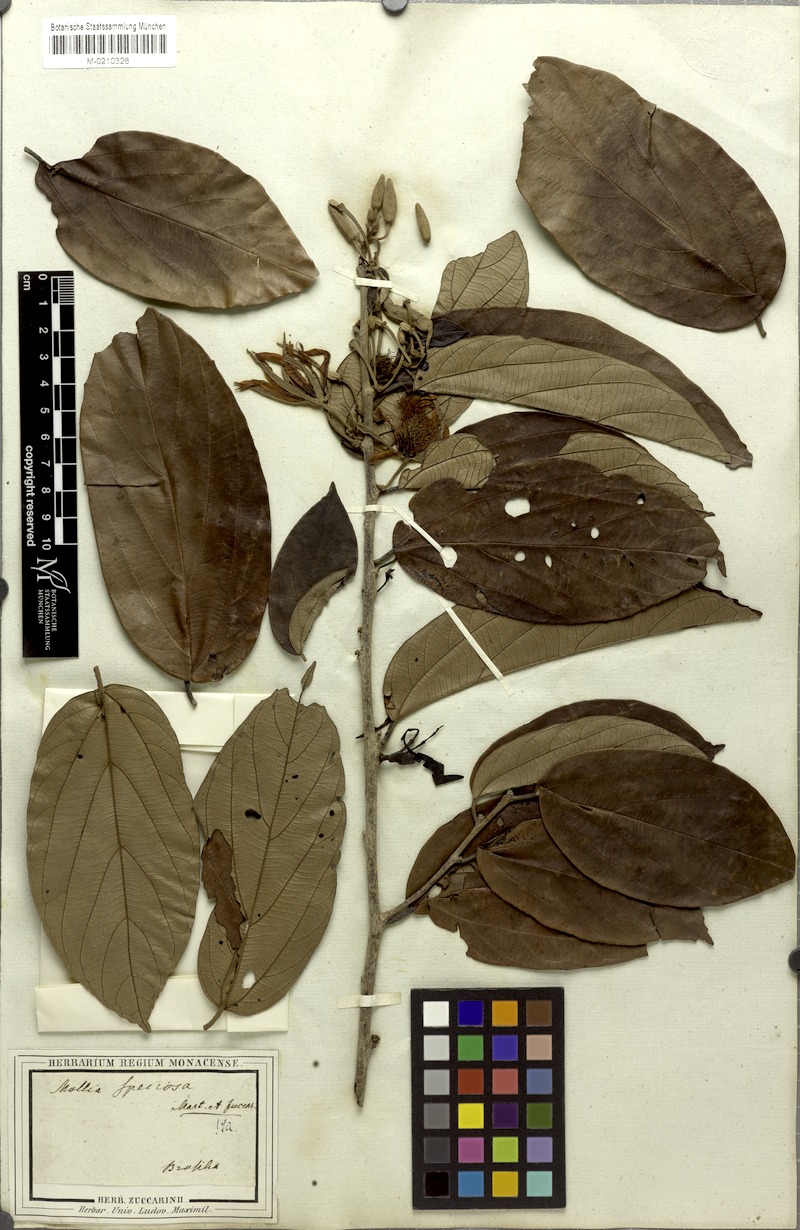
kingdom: Plantae
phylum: Tracheophyta
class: Magnoliopsida
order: Malvales
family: Malvaceae
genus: Mollia
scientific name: Mollia speciosa
